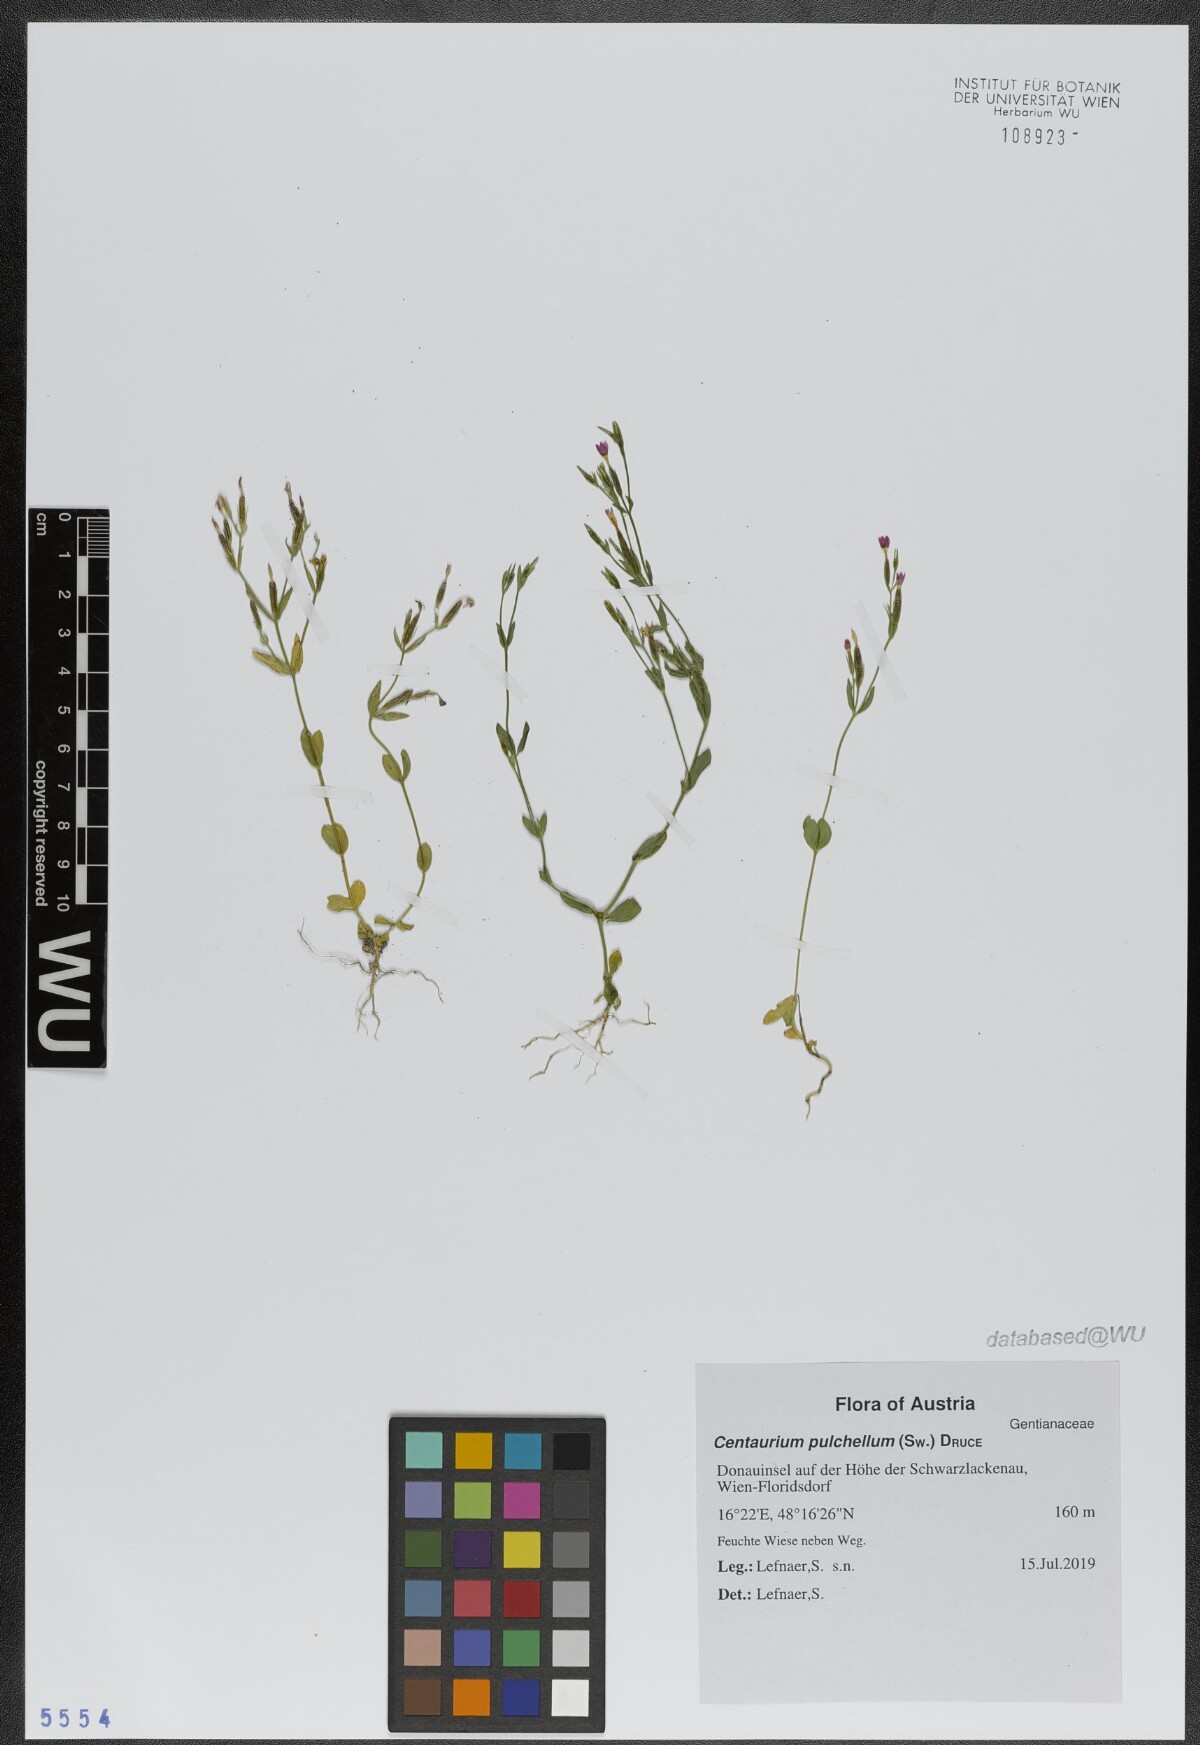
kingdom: Plantae
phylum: Tracheophyta
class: Magnoliopsida
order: Gentianales
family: Gentianaceae
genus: Centaurium
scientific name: Centaurium pulchellum
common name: Lesser centaury
